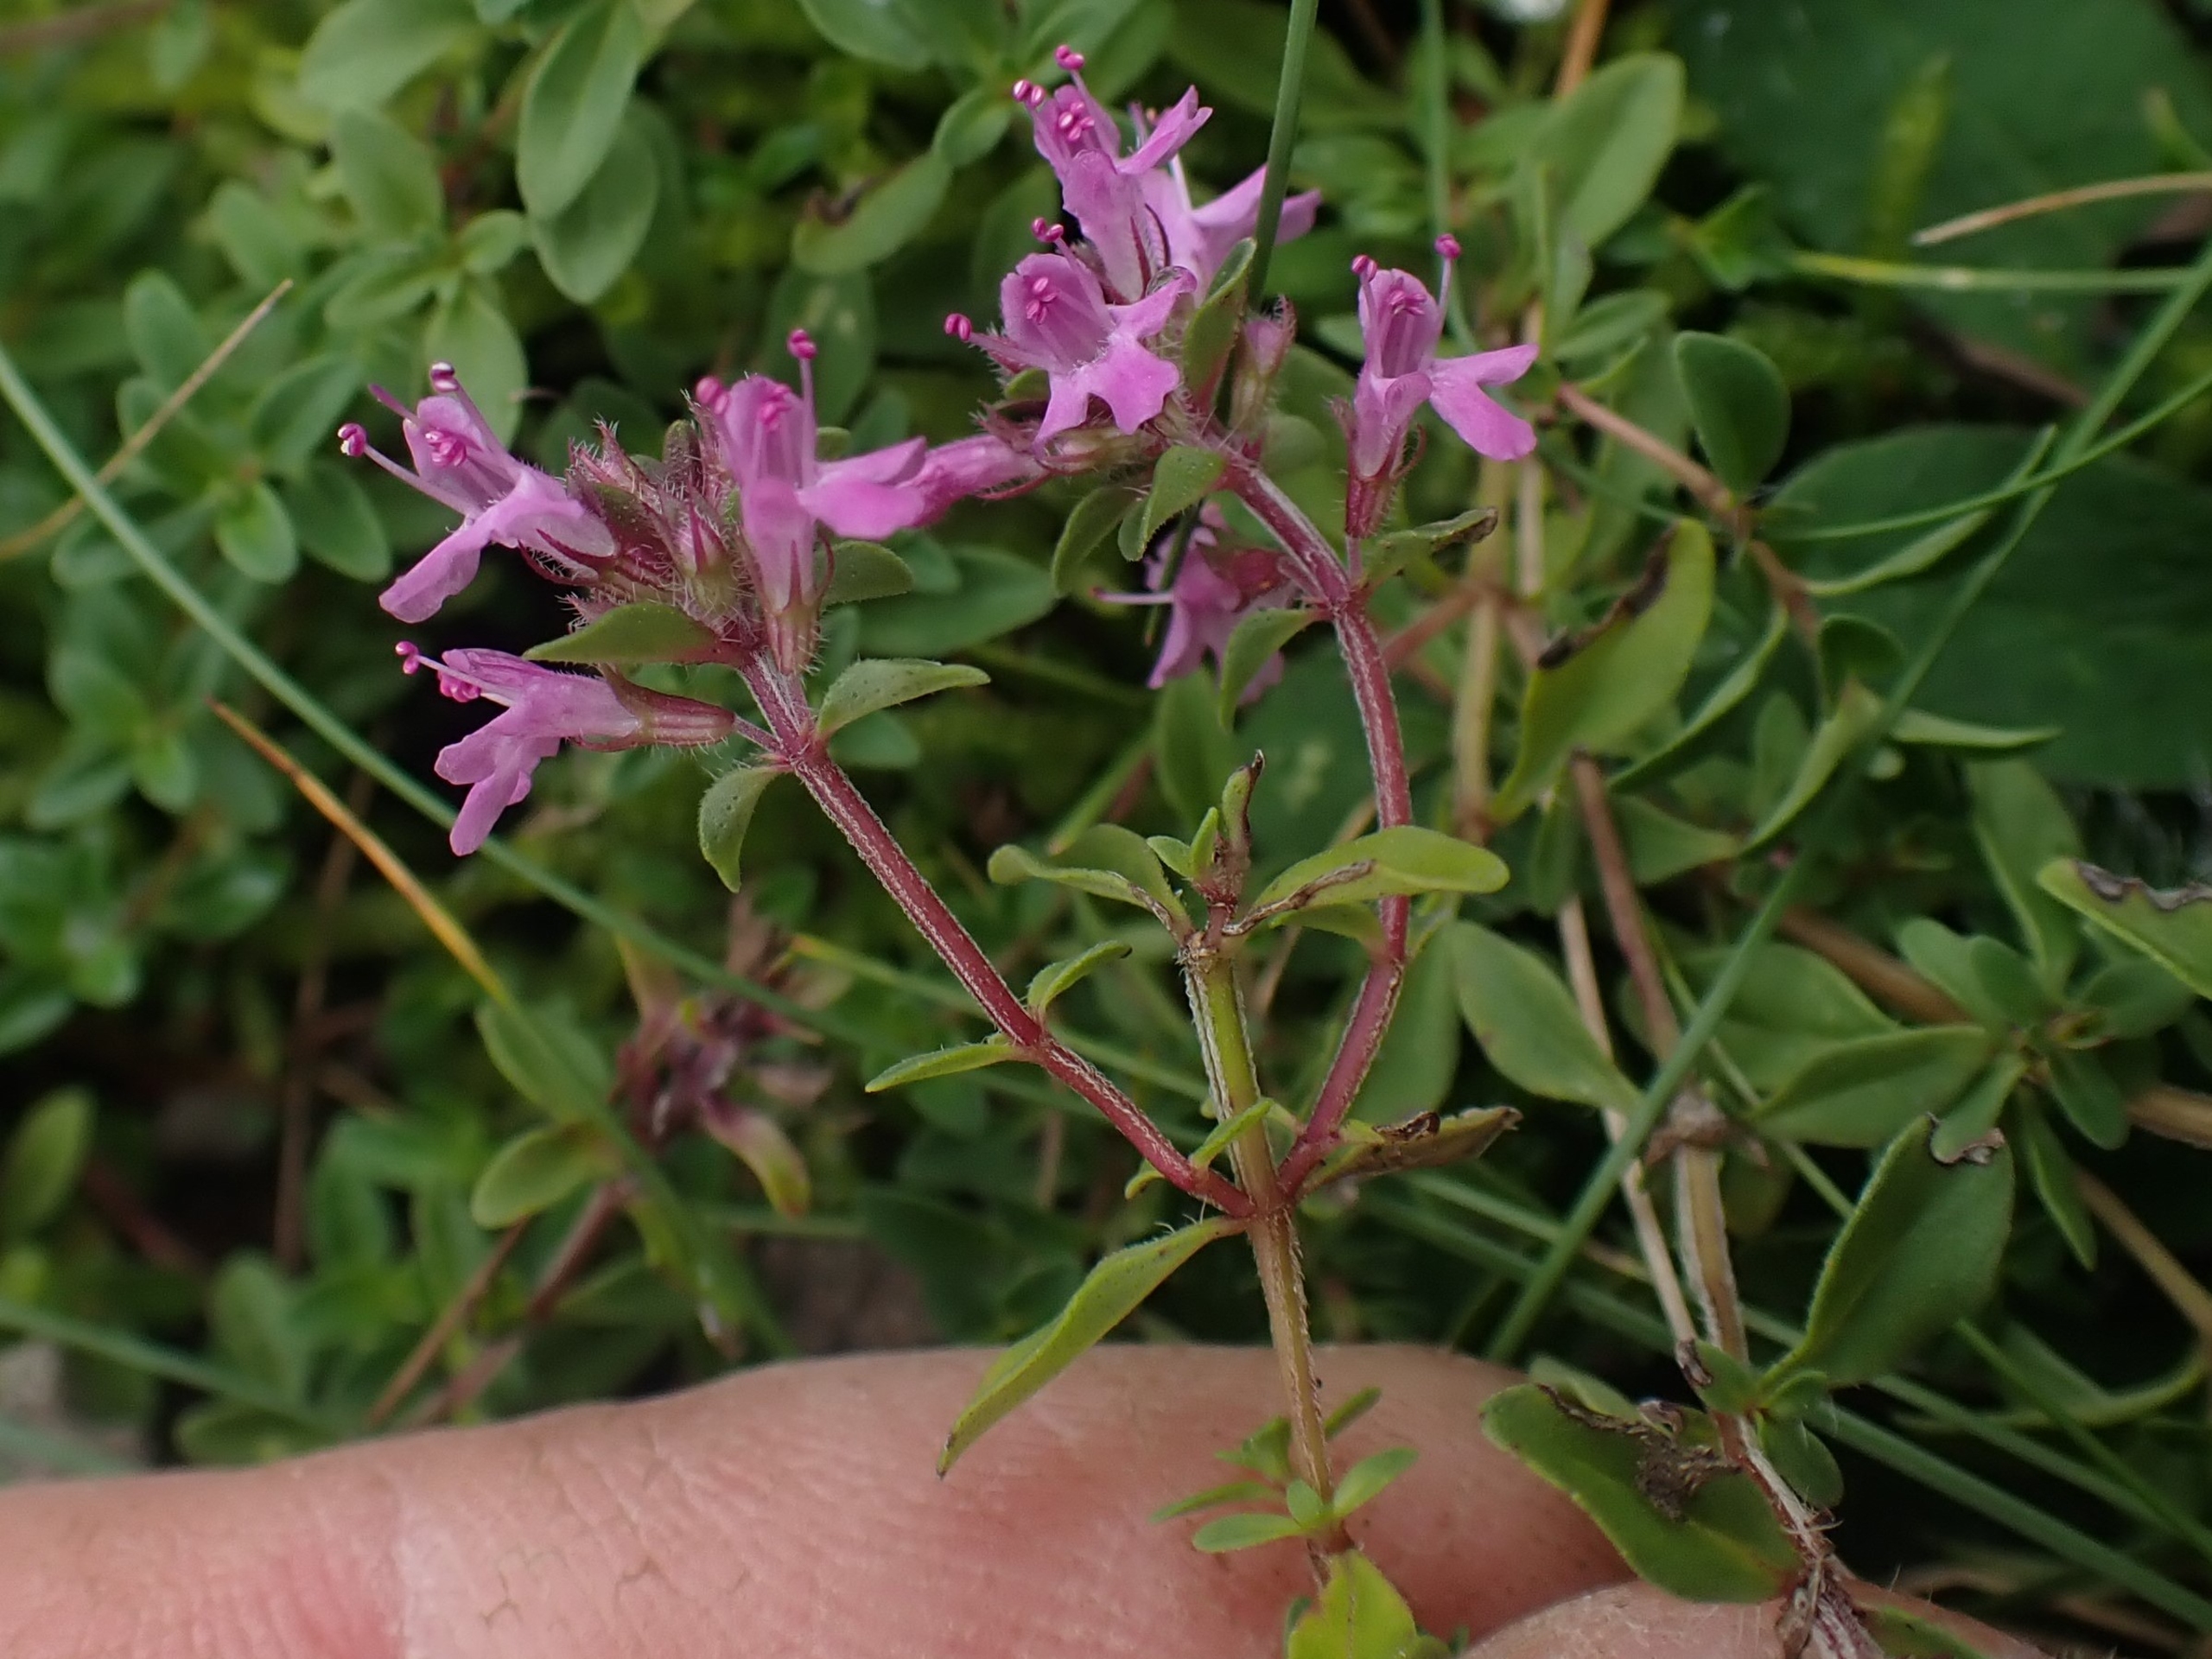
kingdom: Plantae
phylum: Tracheophyta
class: Magnoliopsida
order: Lamiales
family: Lamiaceae
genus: Thymus
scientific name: Thymus pulegioides
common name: Bredbladet timian
